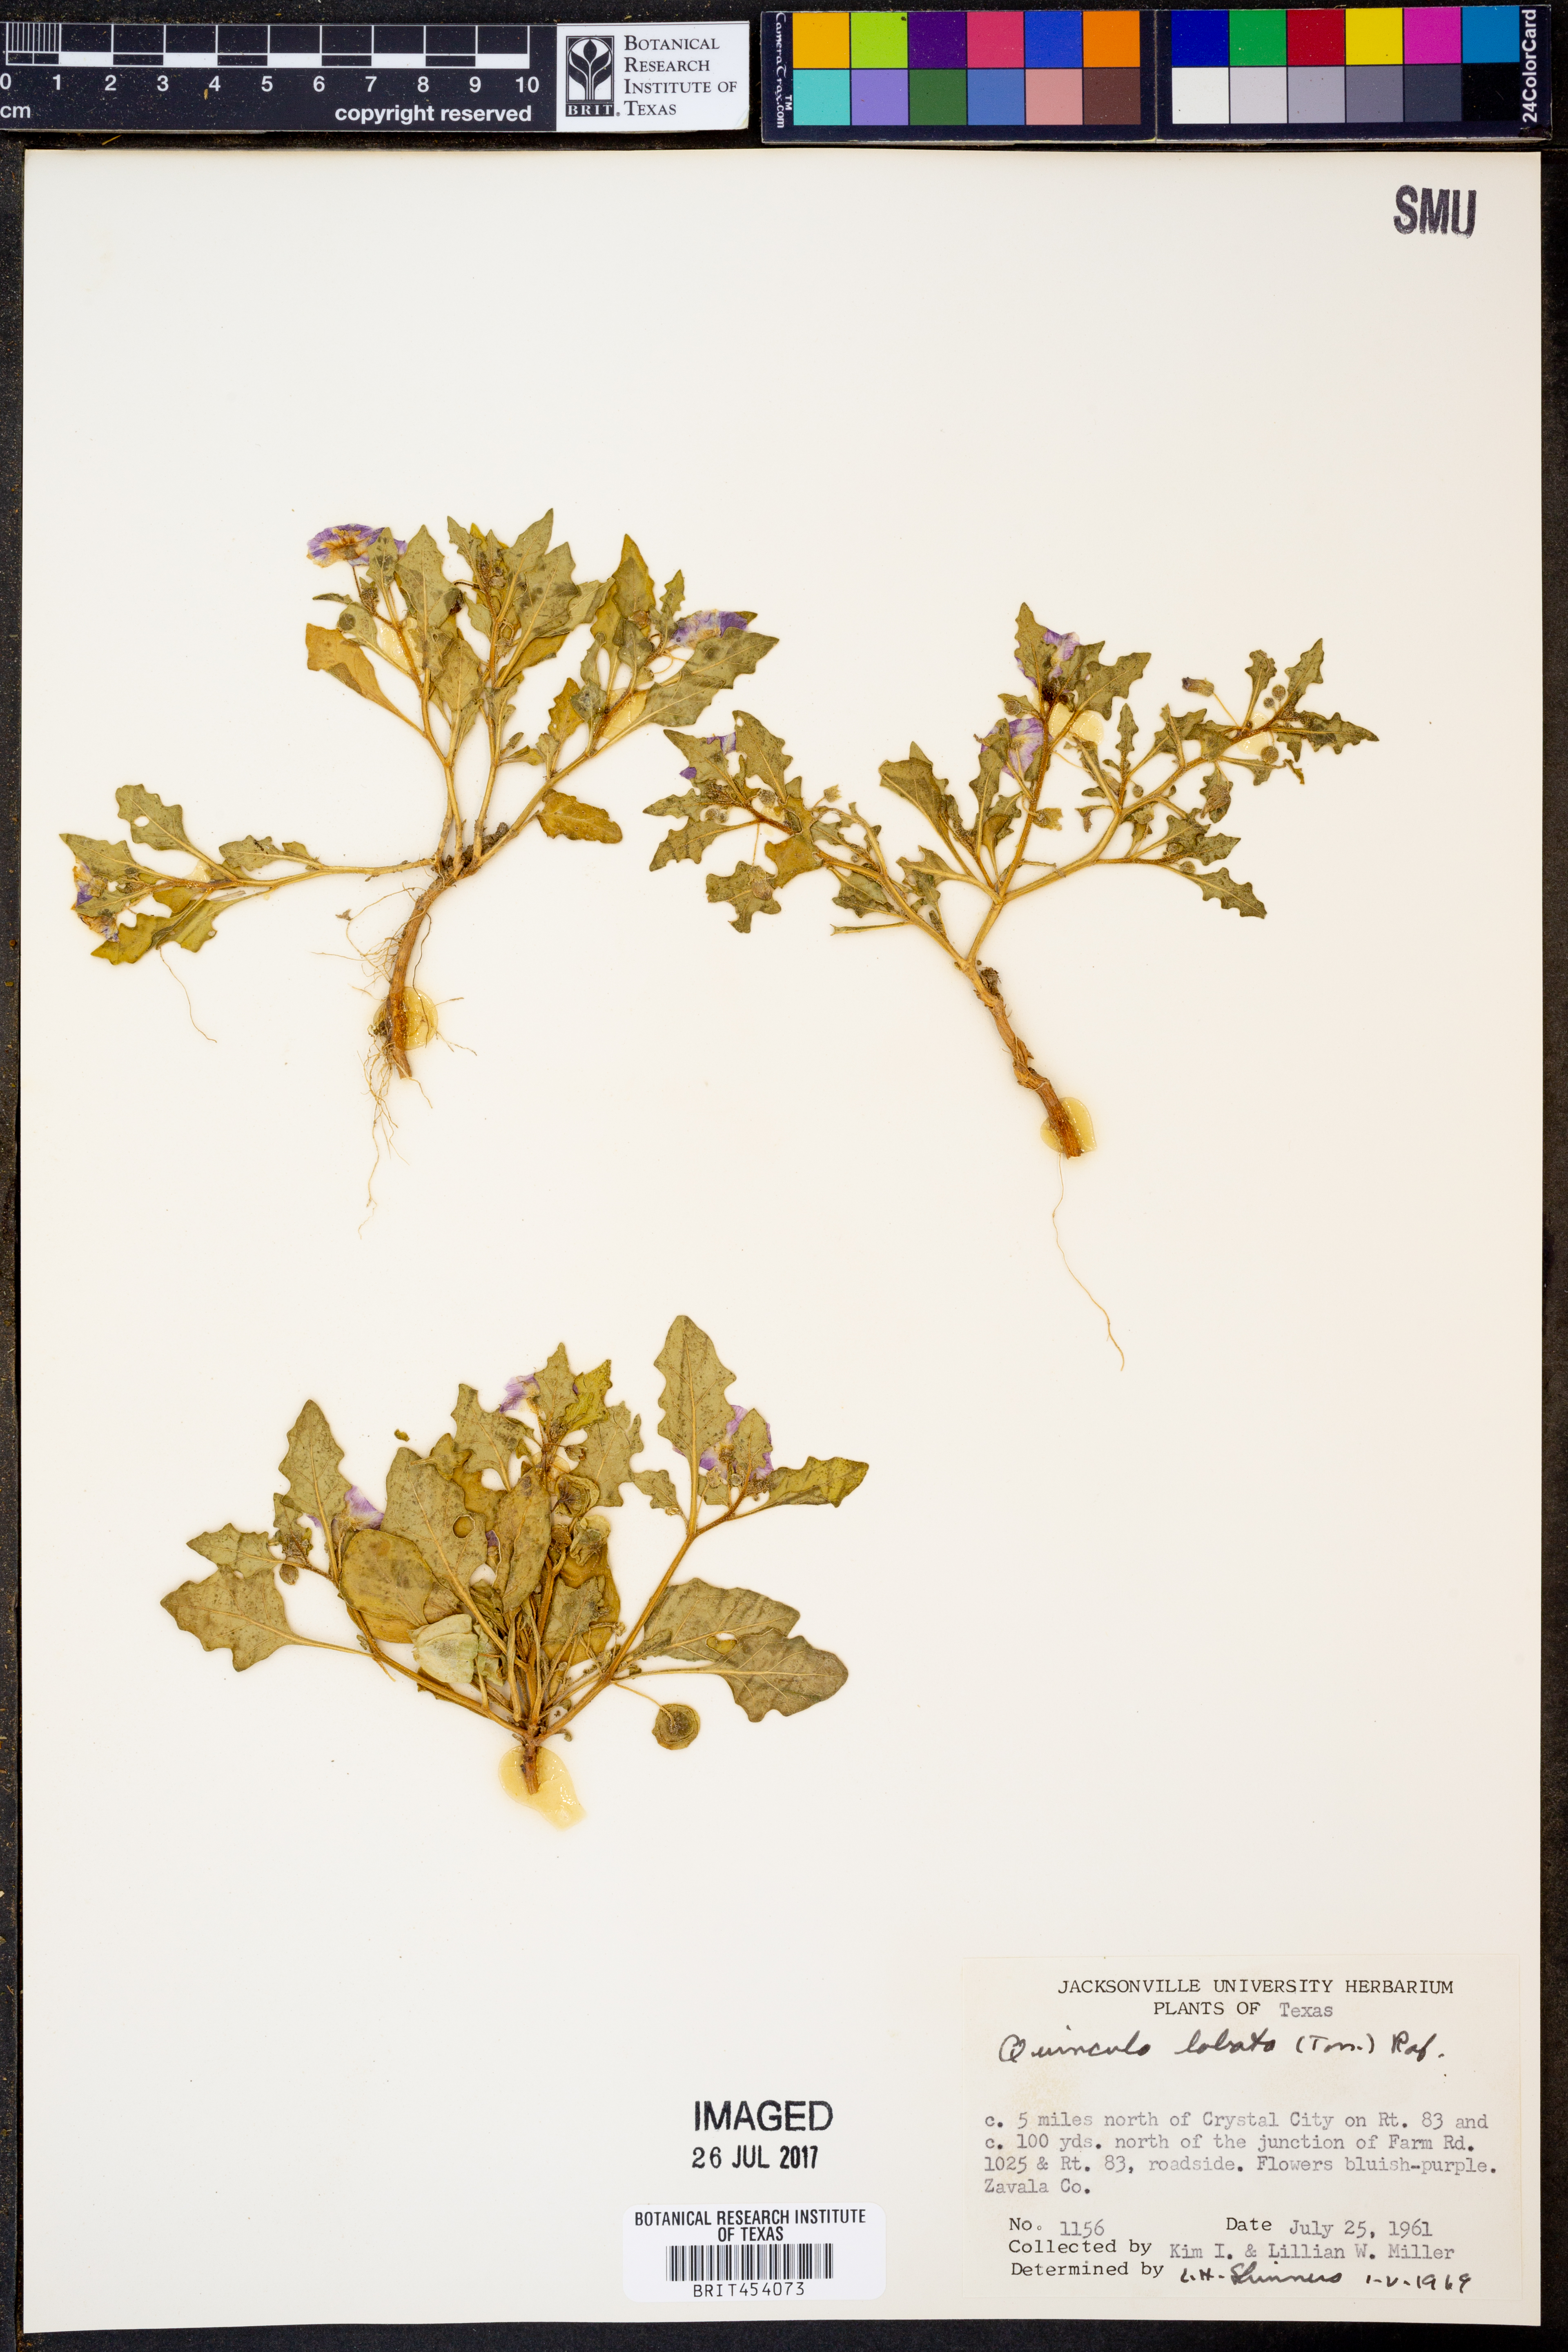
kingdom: Plantae
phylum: Tracheophyta
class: Magnoliopsida
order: Solanales
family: Solanaceae
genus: Quincula
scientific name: Quincula lobata
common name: Purple-ground-cherry
